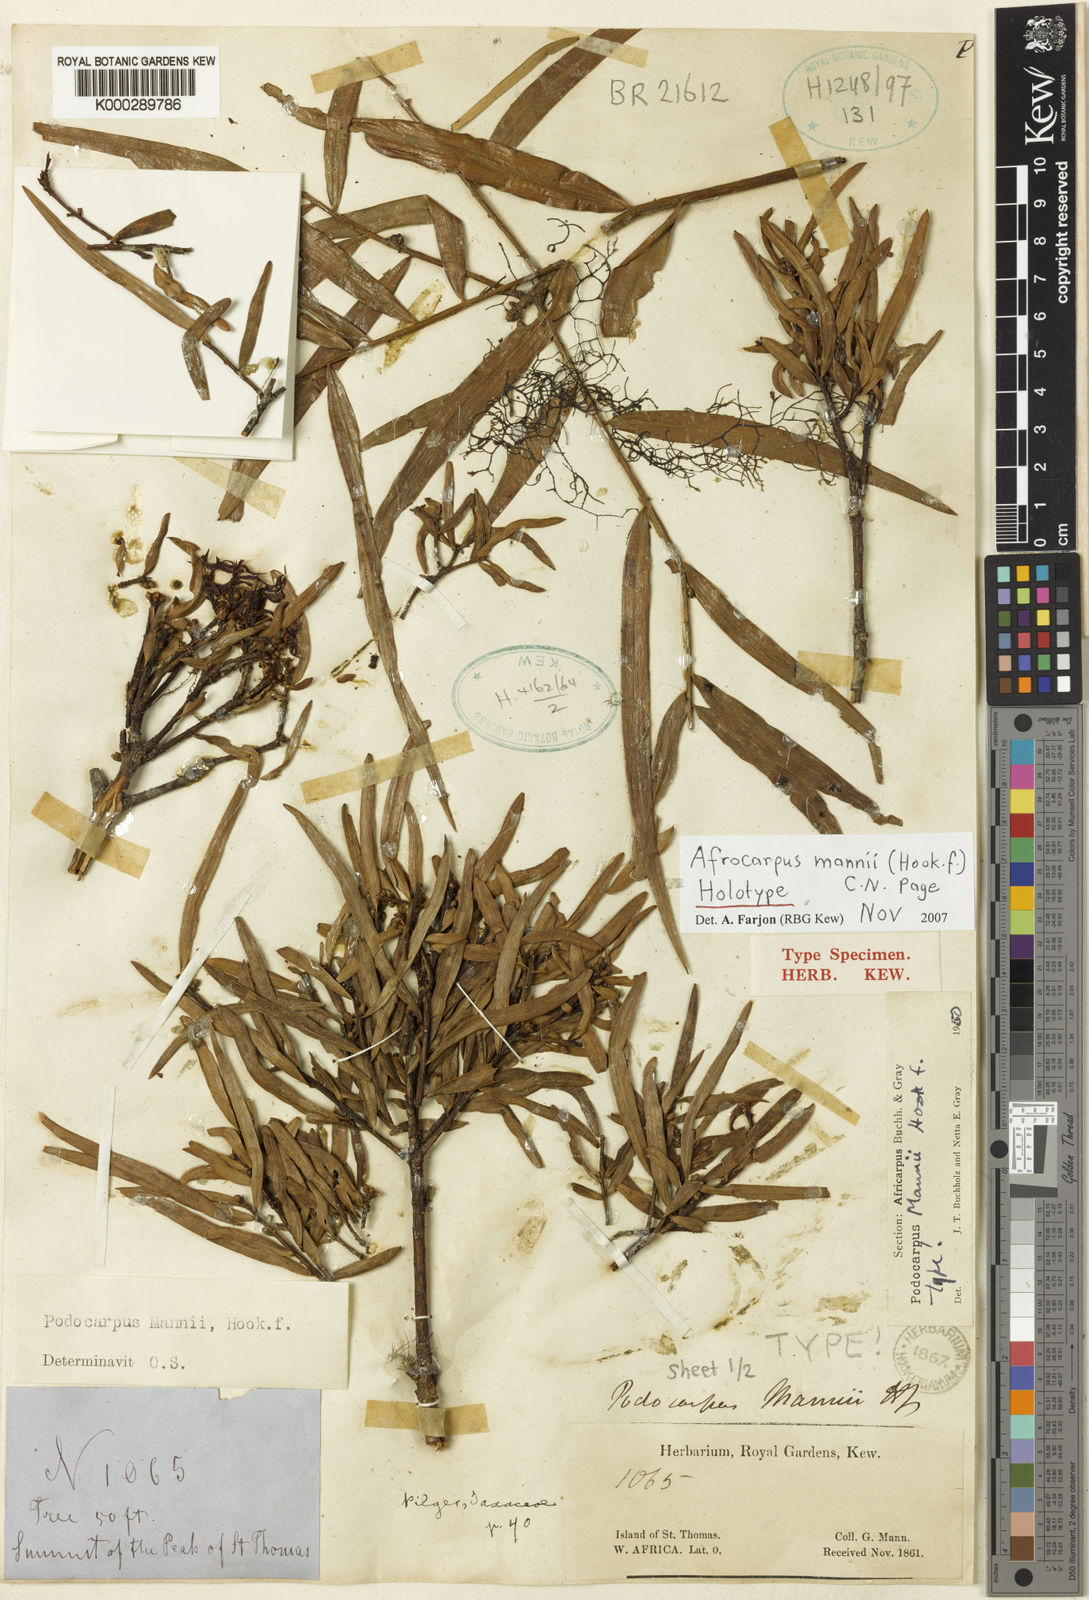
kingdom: Plantae
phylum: Tracheophyta
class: Pinopsida
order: Pinales
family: Podocarpaceae
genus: Afrocarpus
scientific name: Afrocarpus mannii
